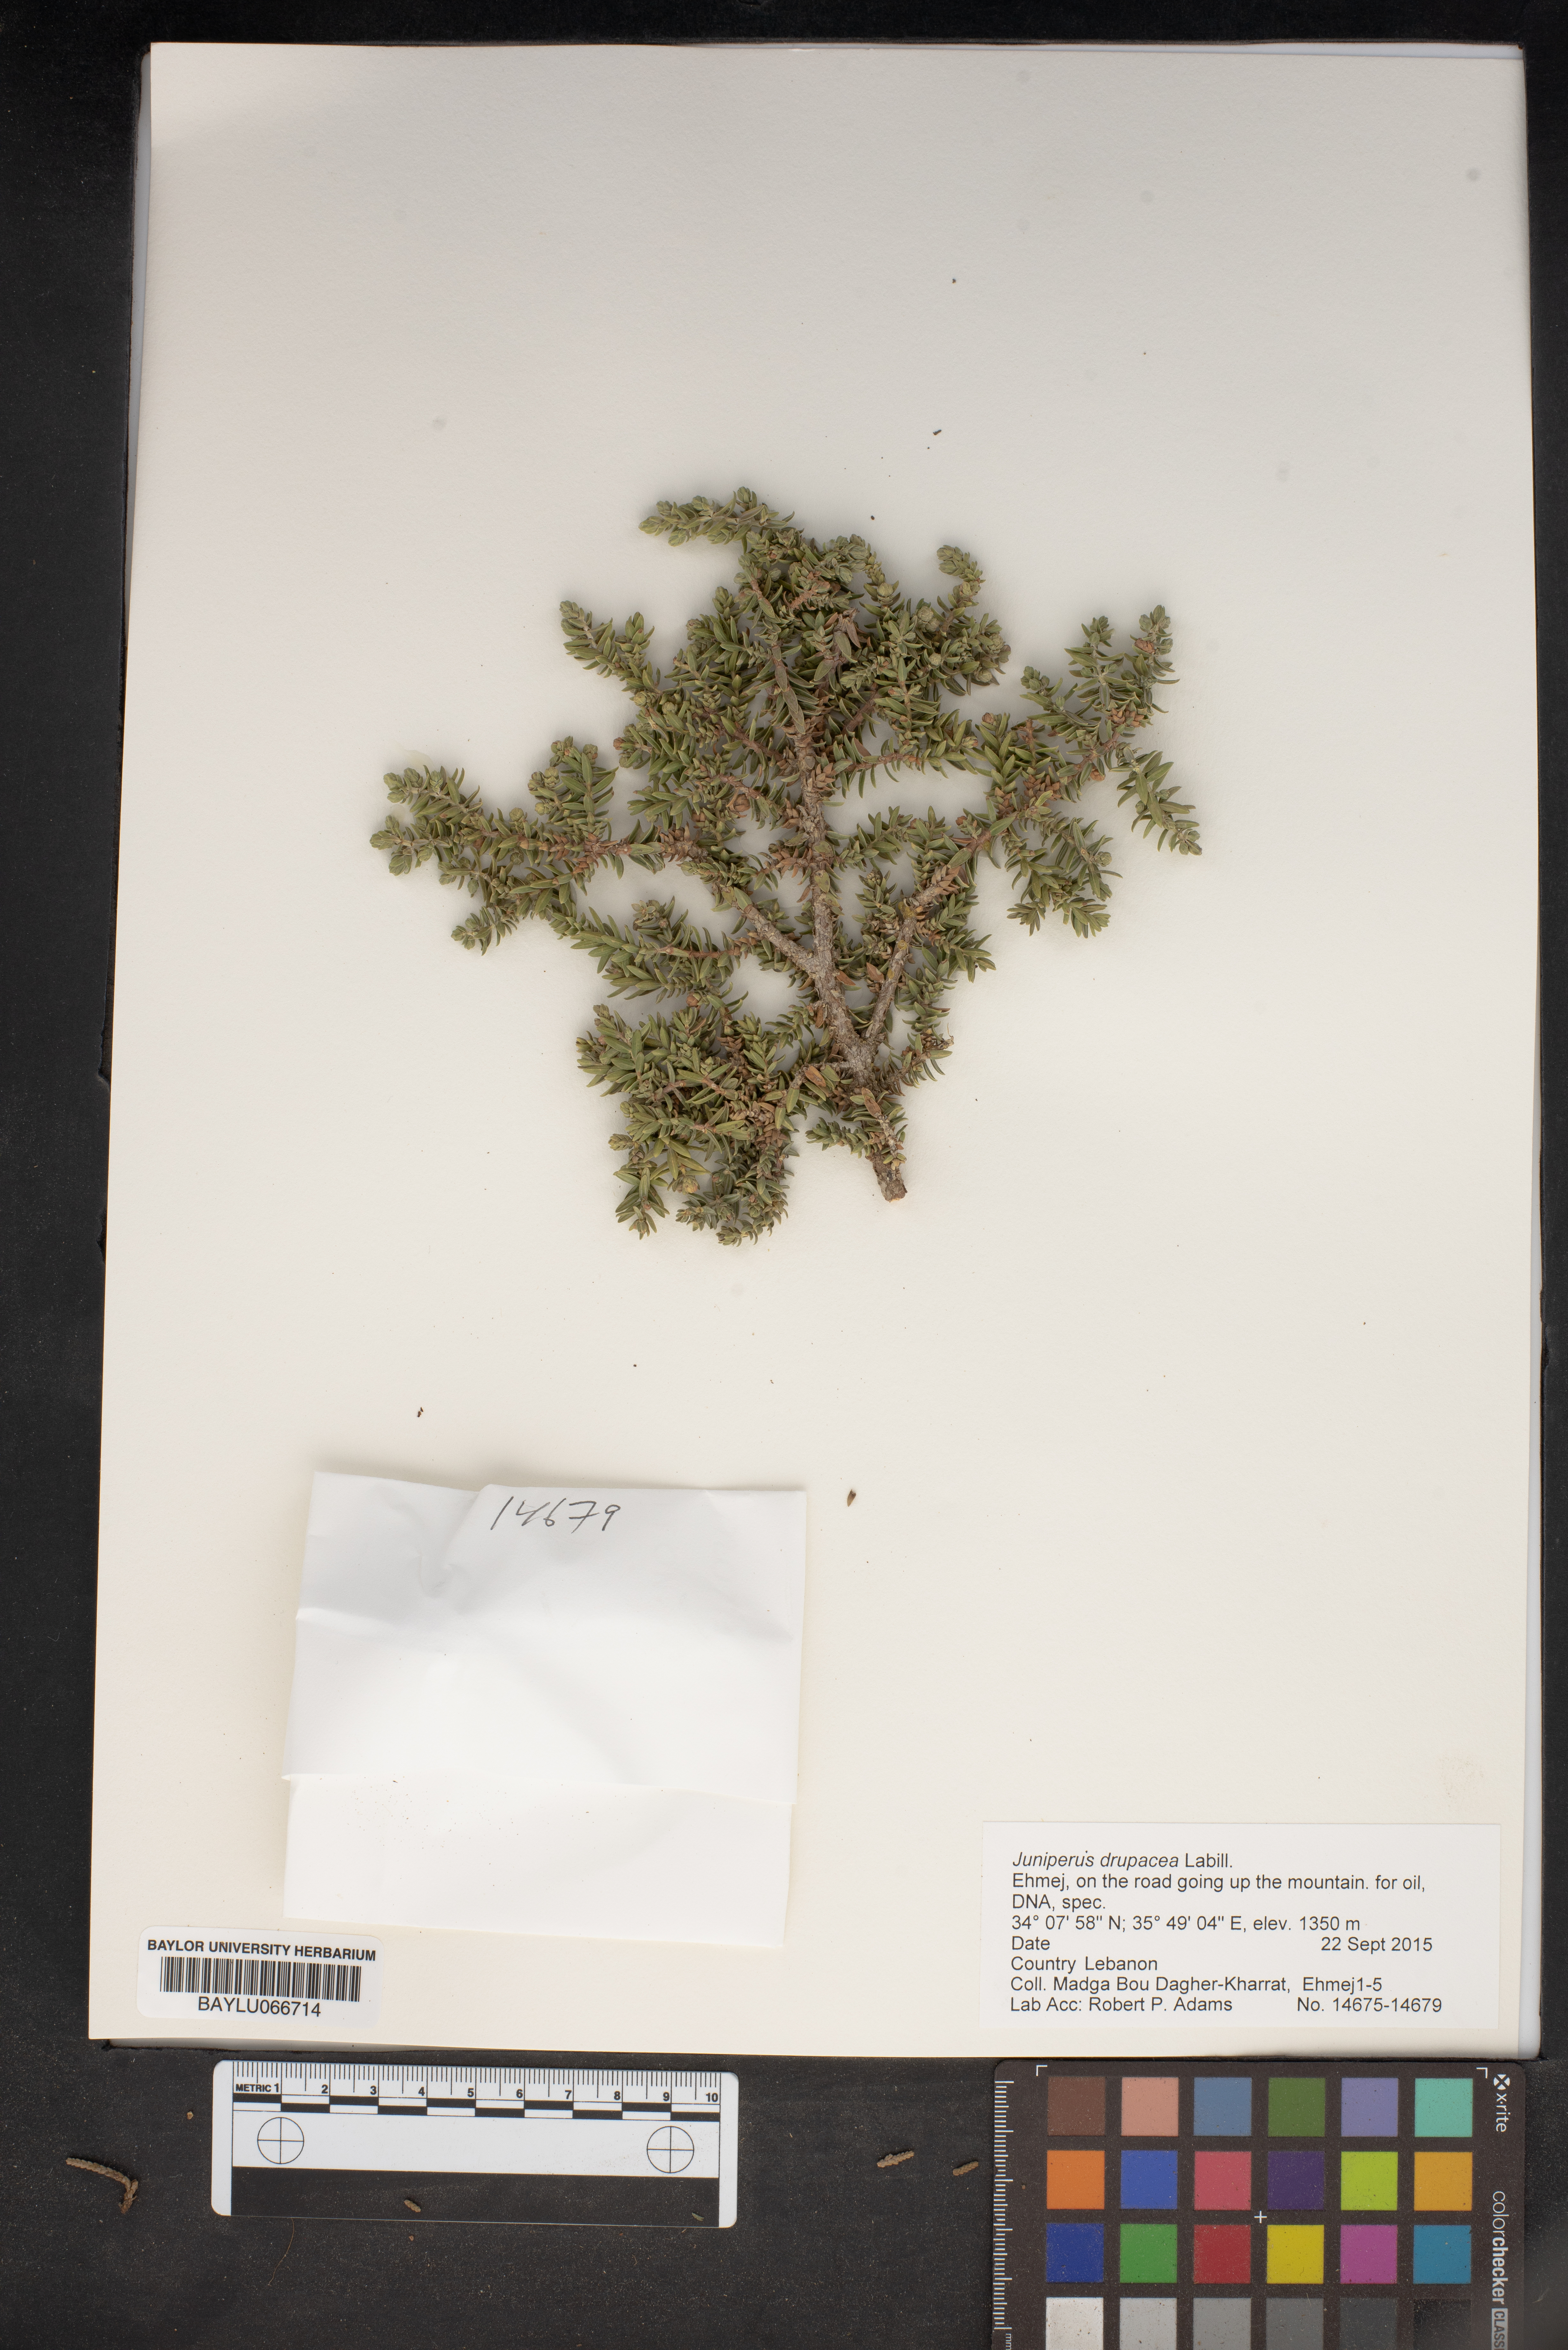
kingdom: Plantae
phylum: Tracheophyta
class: Pinopsida
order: Pinales
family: Cupressaceae
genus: Juniperus
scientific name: Juniperus drupacea
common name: Syrian juniper
